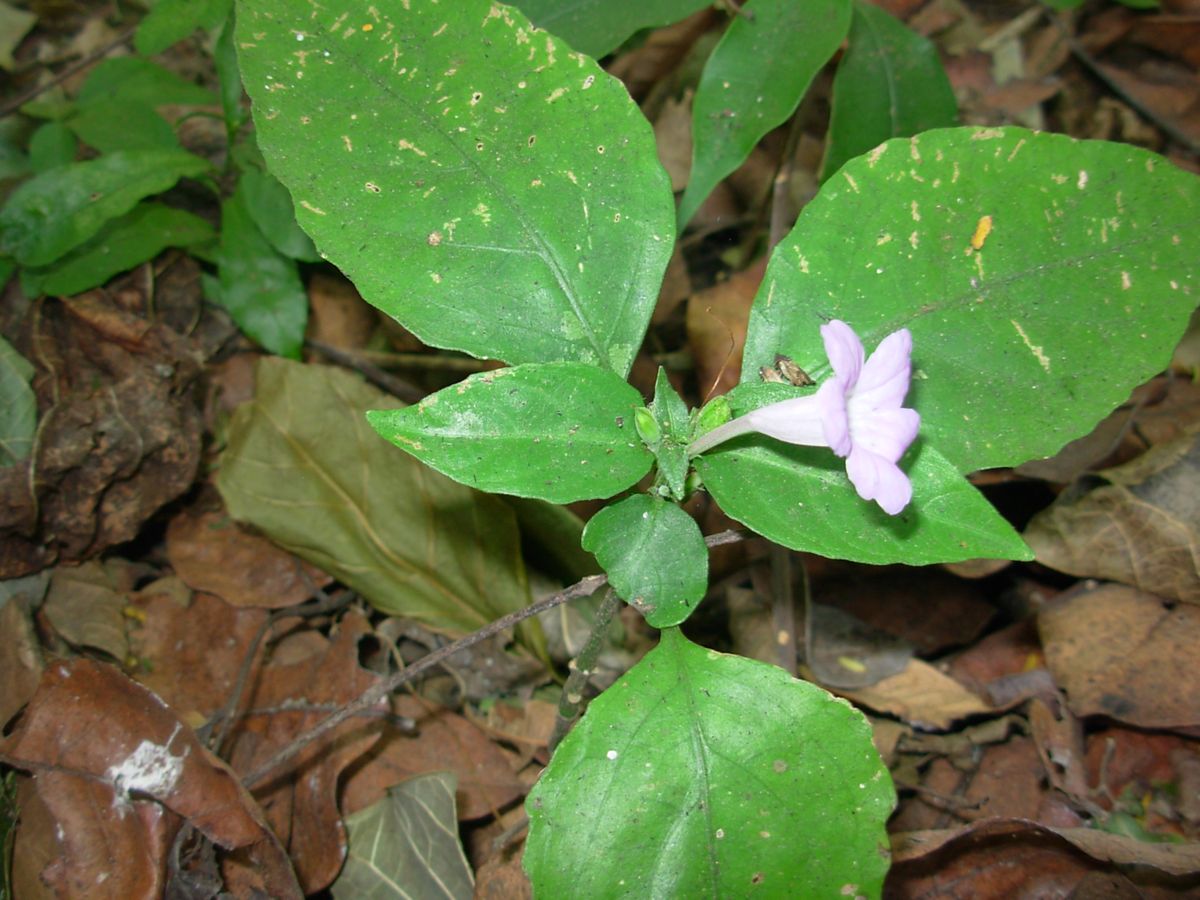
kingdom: Plantae
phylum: Tracheophyta
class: Magnoliopsida
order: Lamiales
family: Acanthaceae
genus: Ruellia
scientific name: Ruellia metallica
